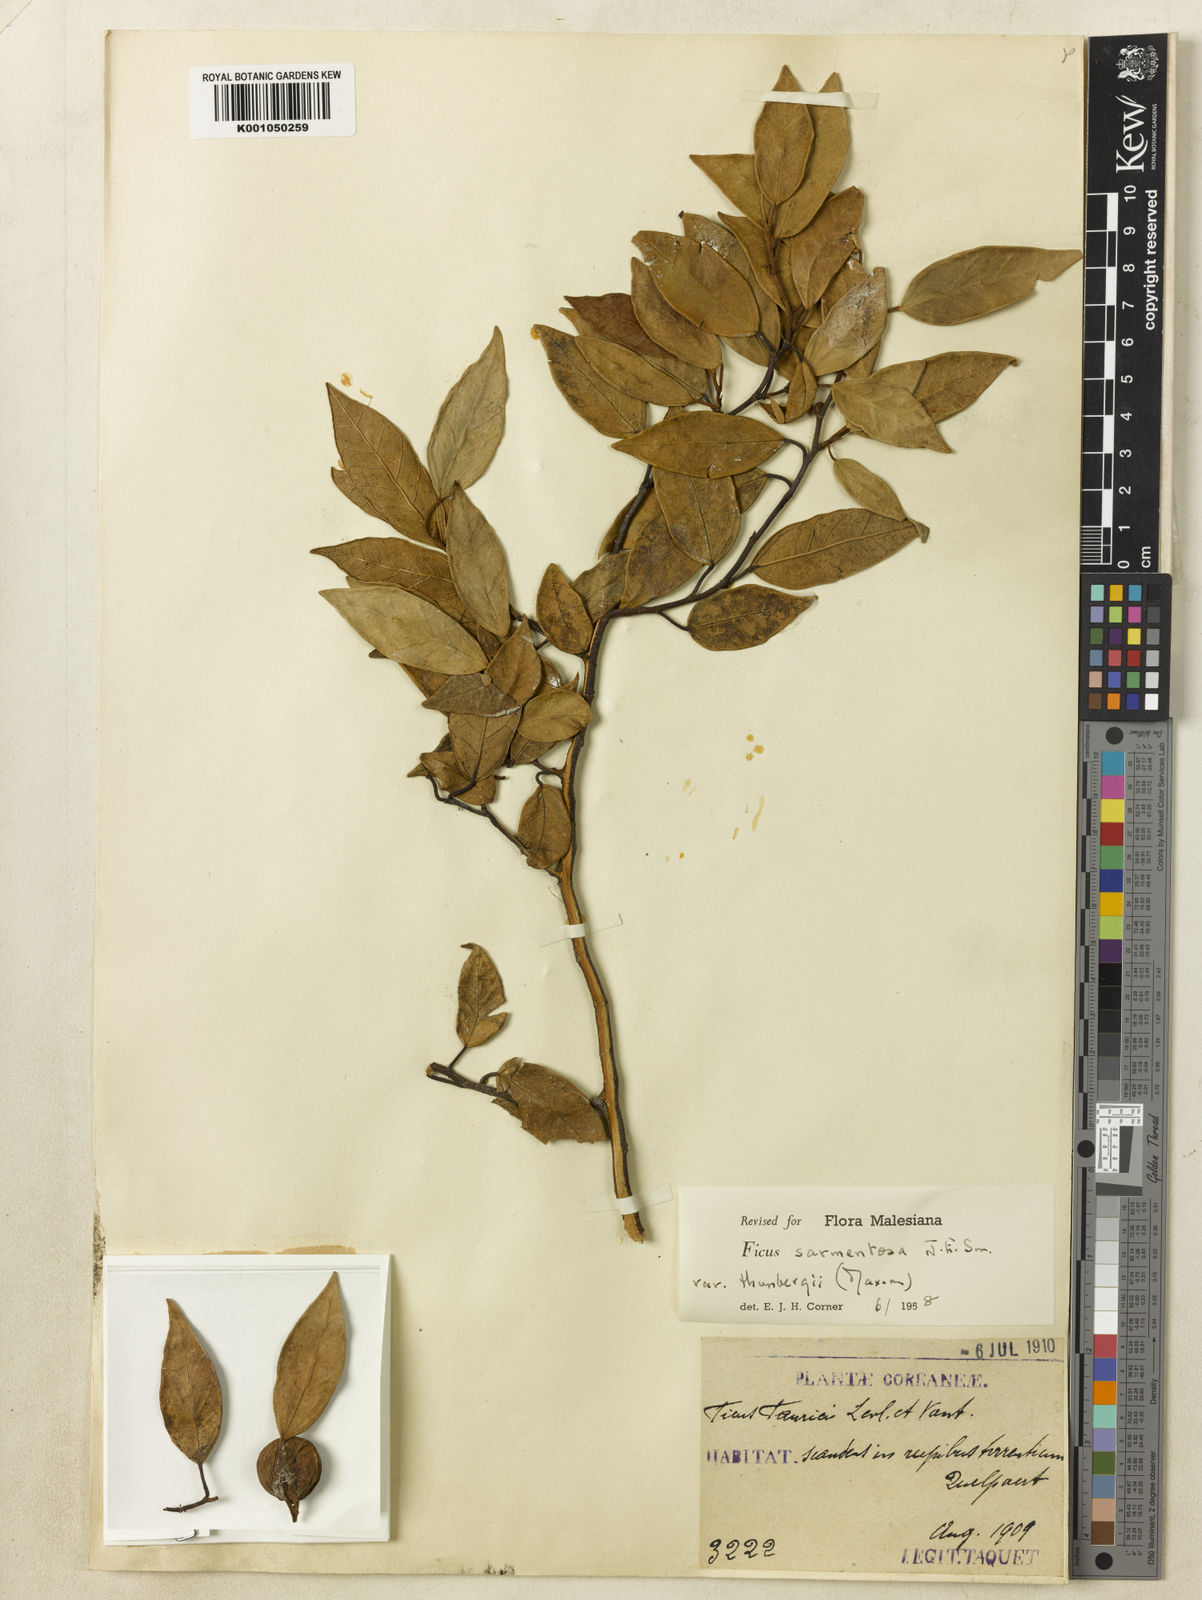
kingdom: Plantae
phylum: Tracheophyta
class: Magnoliopsida
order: Rosales
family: Moraceae
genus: Ficus
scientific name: Ficus sarmentosa
